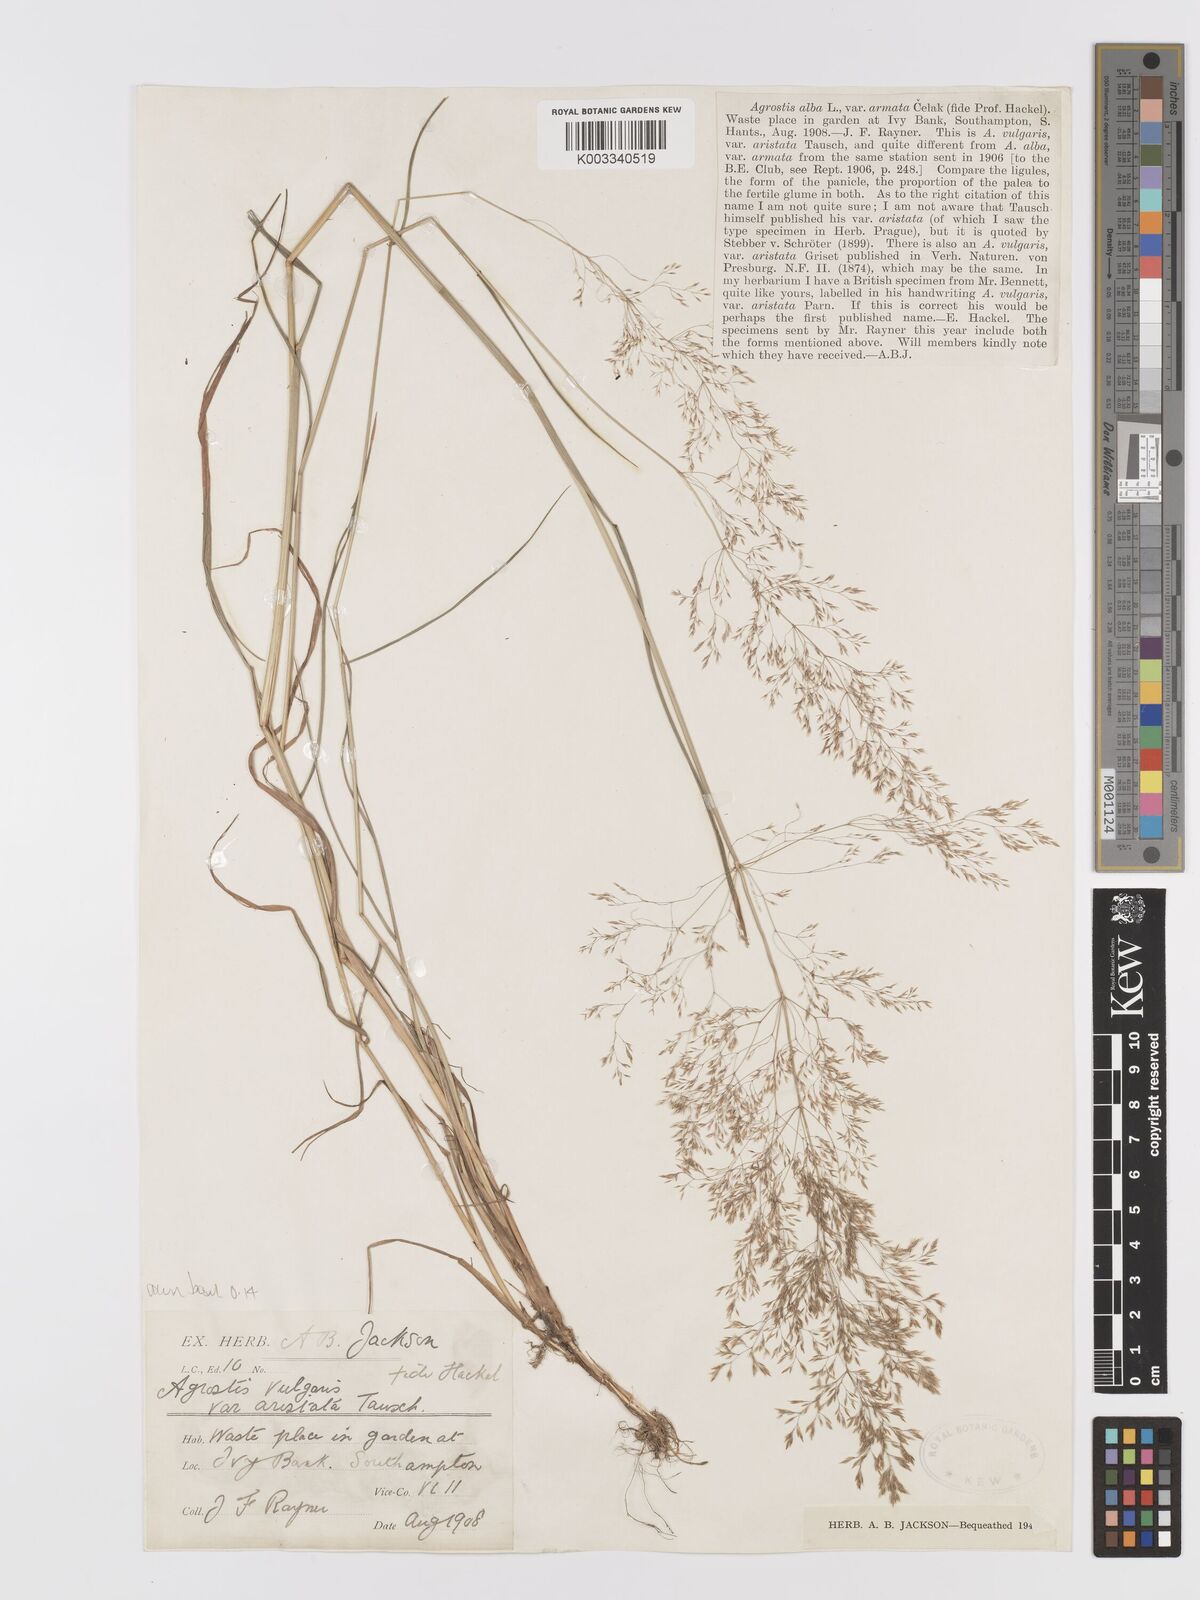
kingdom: Plantae
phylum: Tracheophyta
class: Liliopsida
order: Poales
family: Poaceae
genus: Agrostis
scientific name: Agrostis capillaris
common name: Colonial bentgrass
